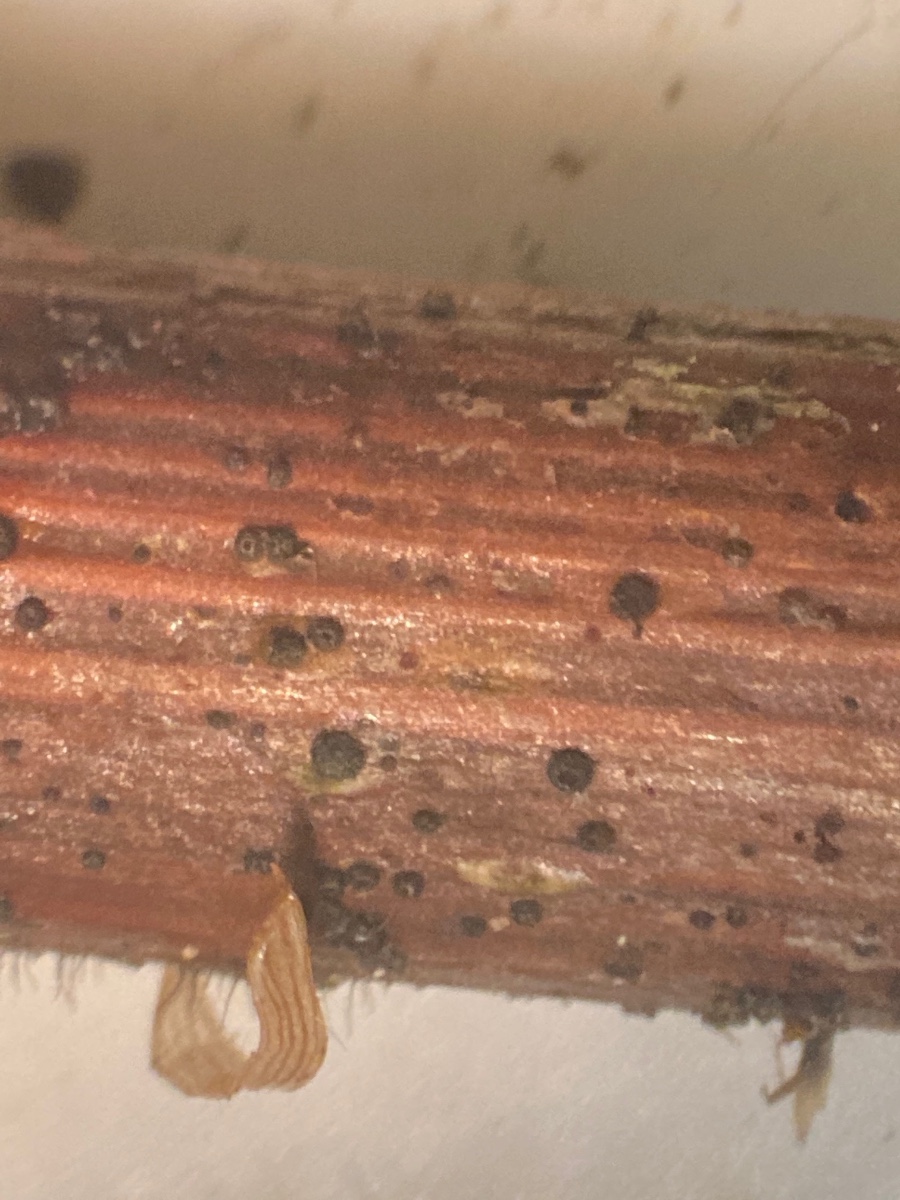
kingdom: Fungi
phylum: Ascomycota
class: Leotiomycetes
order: Helotiales
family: Ploettnerulaceae
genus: Pyrenopeziza
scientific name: Pyrenopeziza rubi
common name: hindbær-kerneskive
